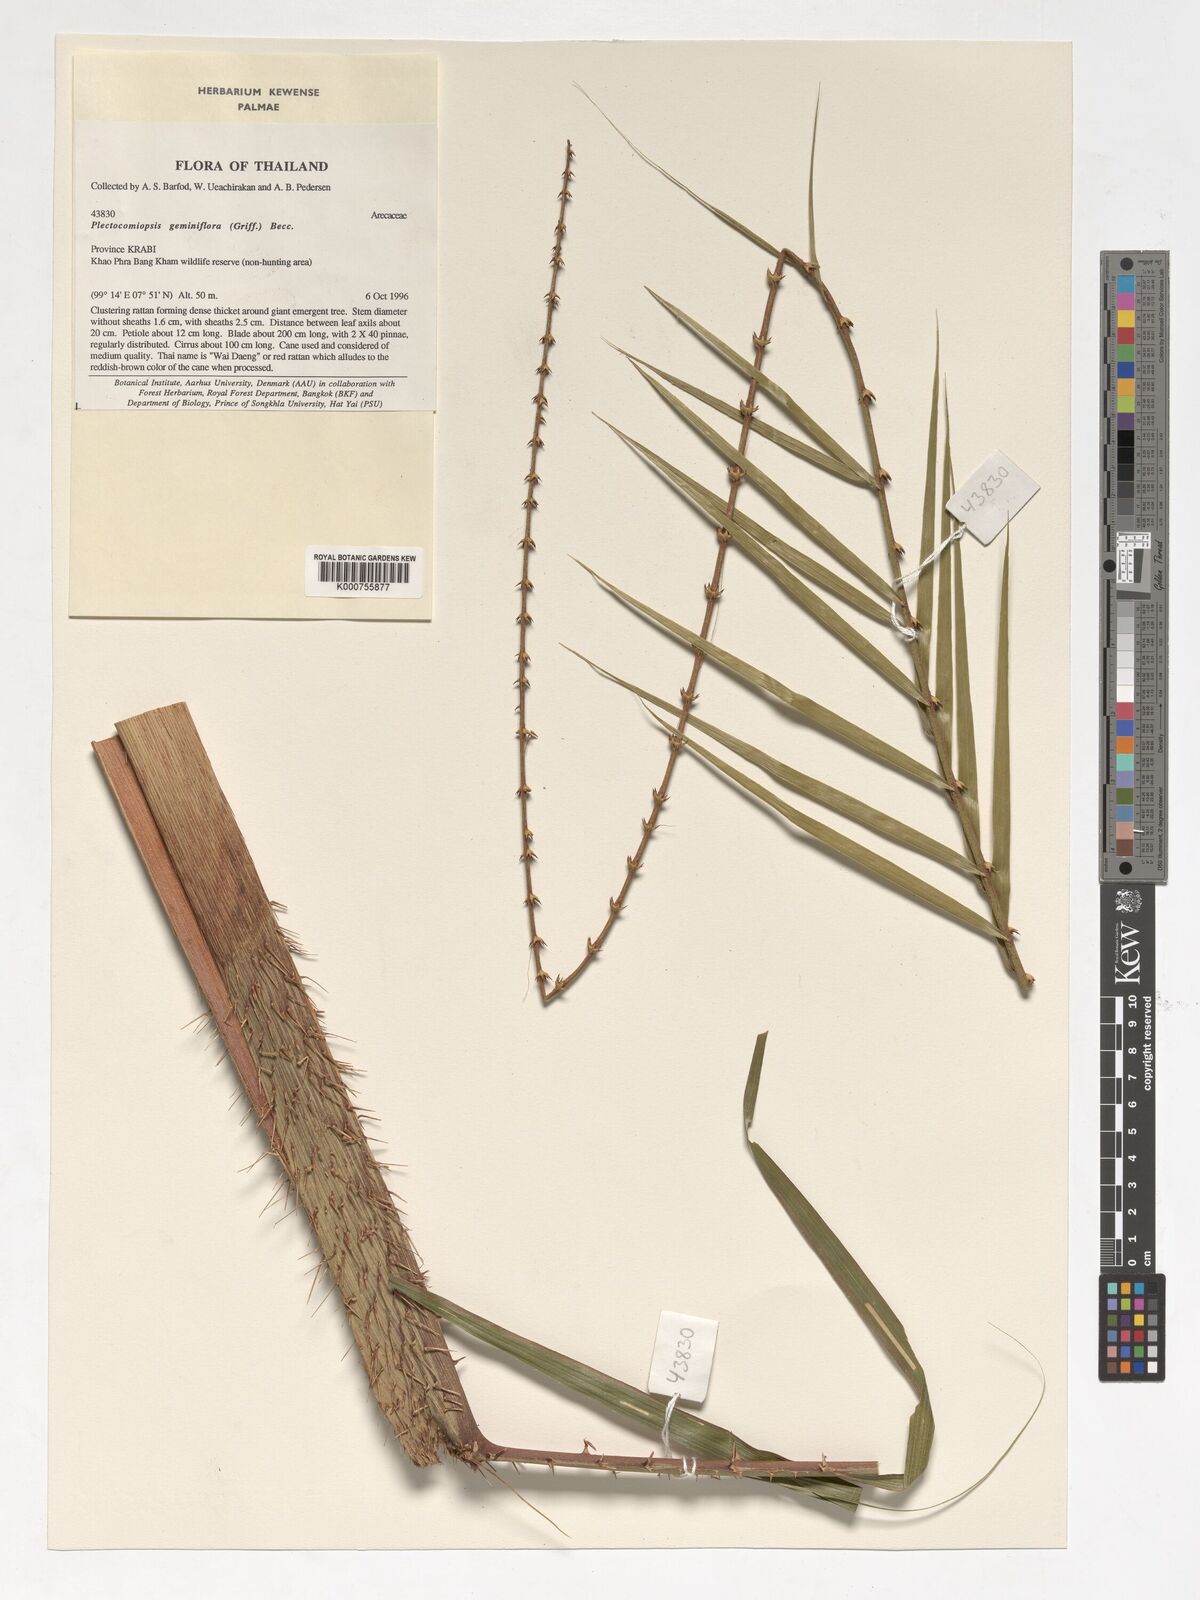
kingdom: Plantae
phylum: Tracheophyta
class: Liliopsida
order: Arecales
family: Arecaceae
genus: Plectocomiopsis
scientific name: Plectocomiopsis geminiflora
